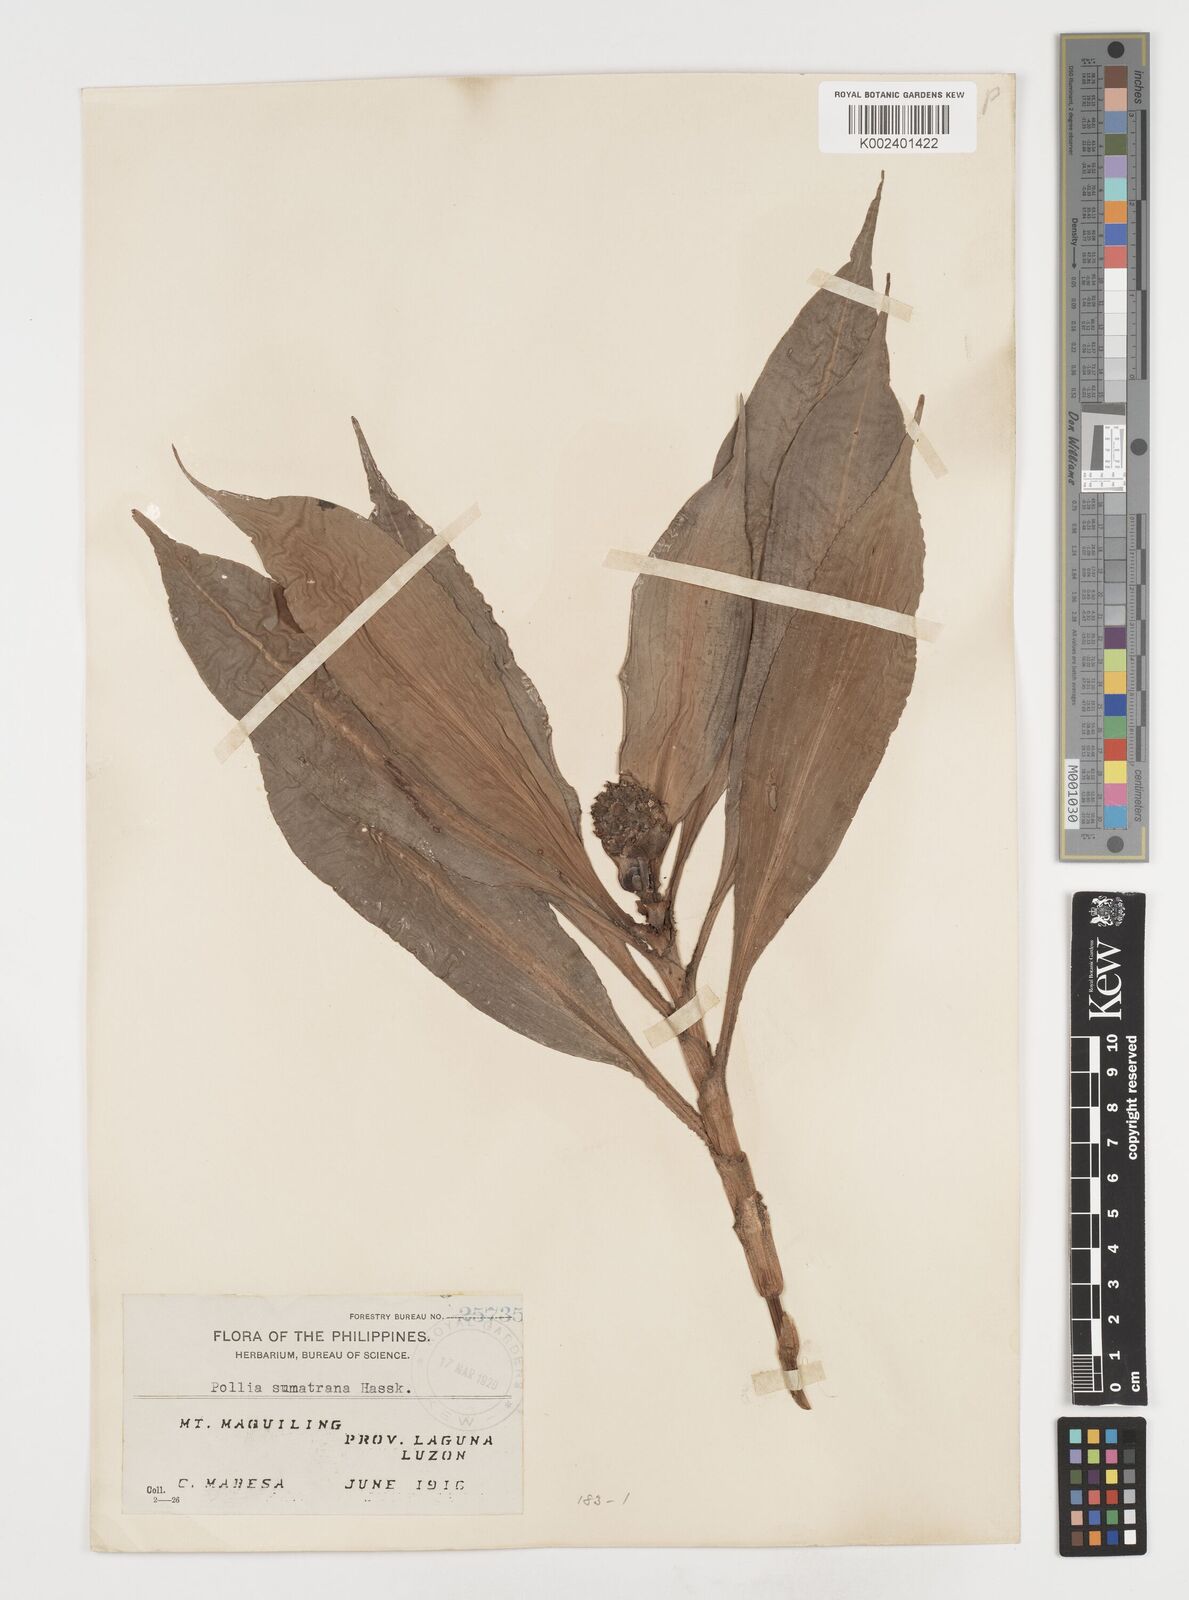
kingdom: Plantae
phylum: Tracheophyta
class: Liliopsida
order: Commelinales
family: Commelinaceae
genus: Pollia
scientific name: Pollia sumatrana
